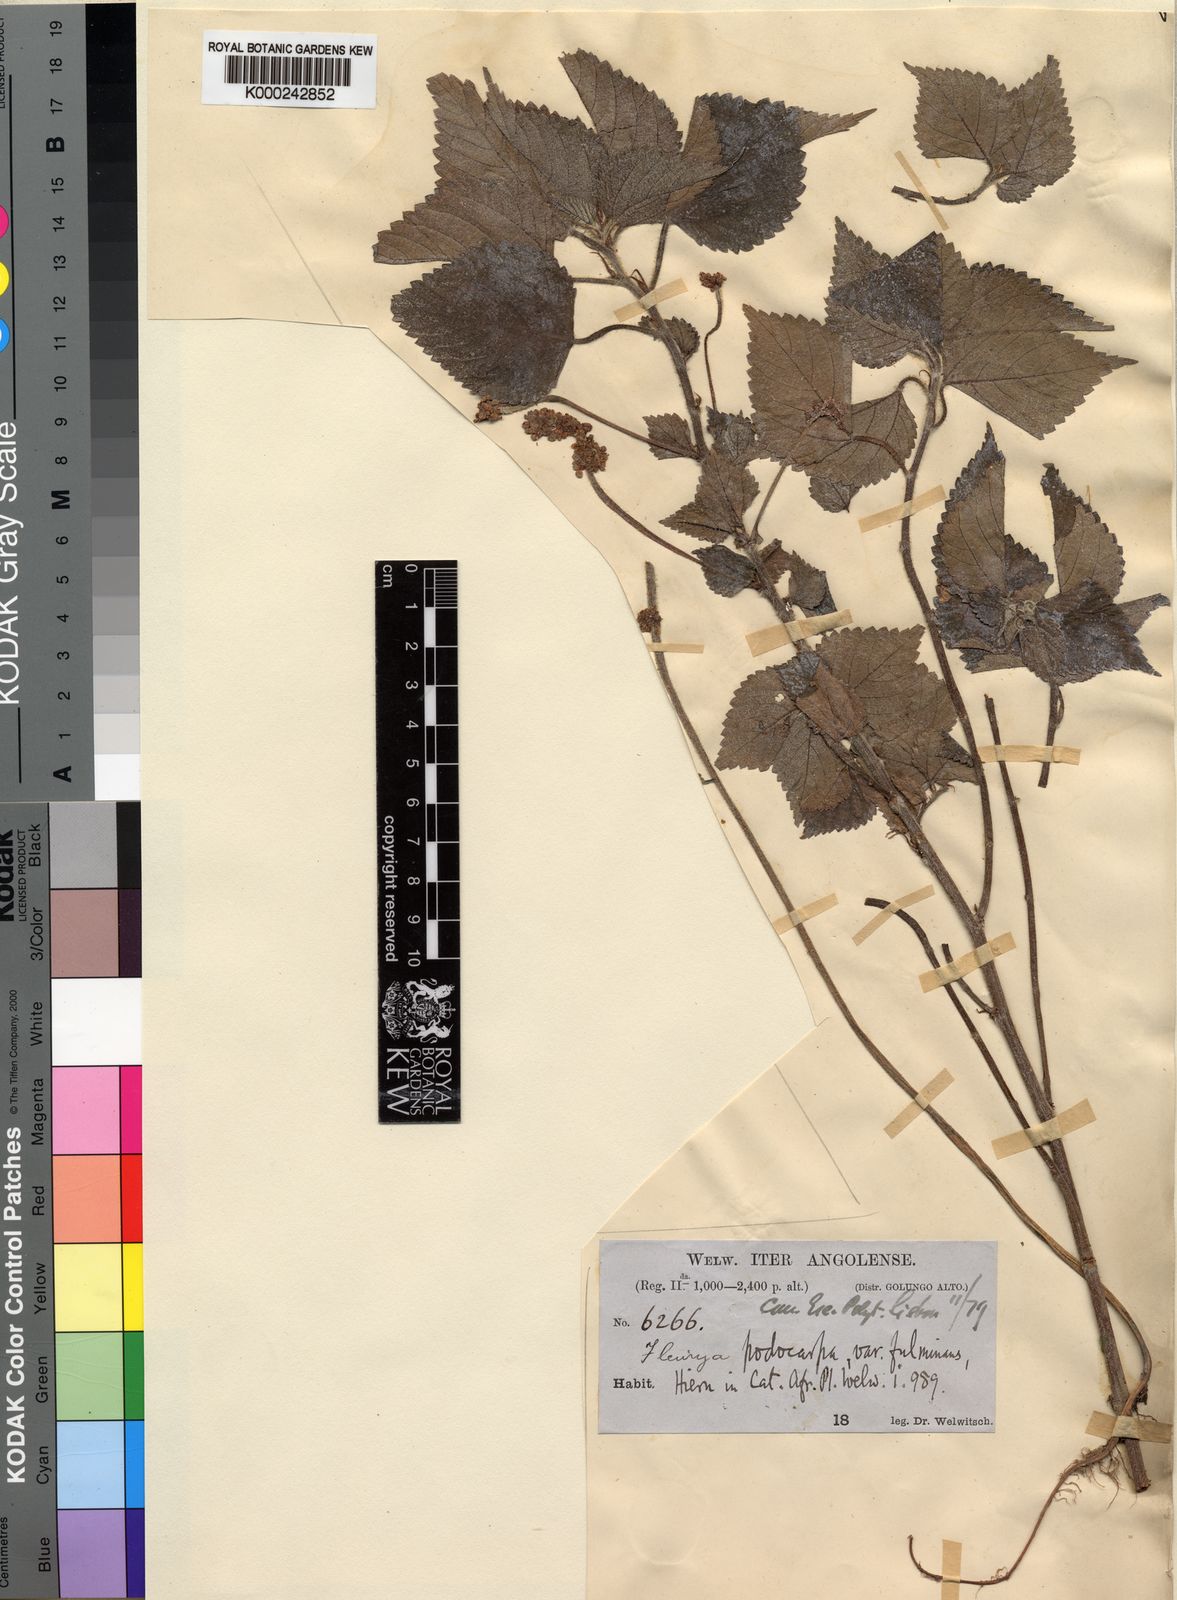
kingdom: Plantae
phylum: Tracheophyta
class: Magnoliopsida
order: Rosales
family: Urticaceae
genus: Laportea
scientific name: Laportea ovalifolia
